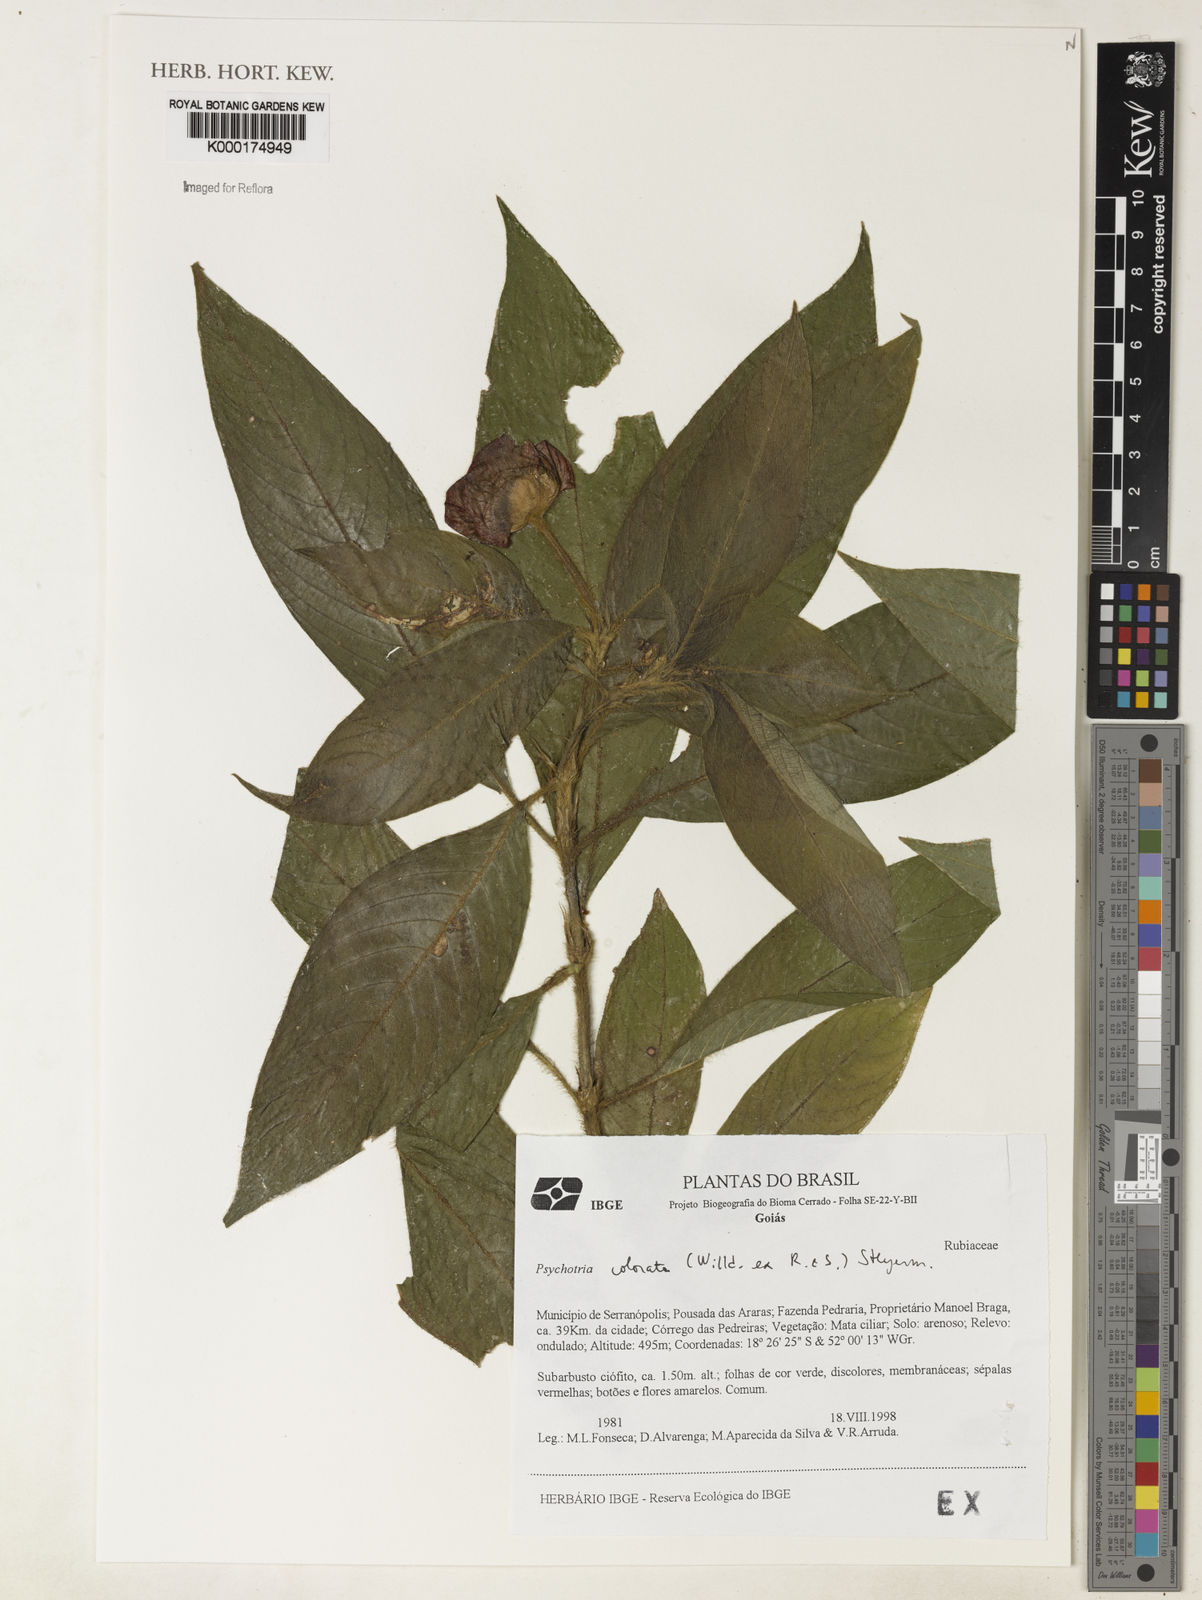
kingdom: Plantae
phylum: Tracheophyta
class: Magnoliopsida
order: Gentianales
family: Rubiaceae
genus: Psychotria
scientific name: Psychotria
